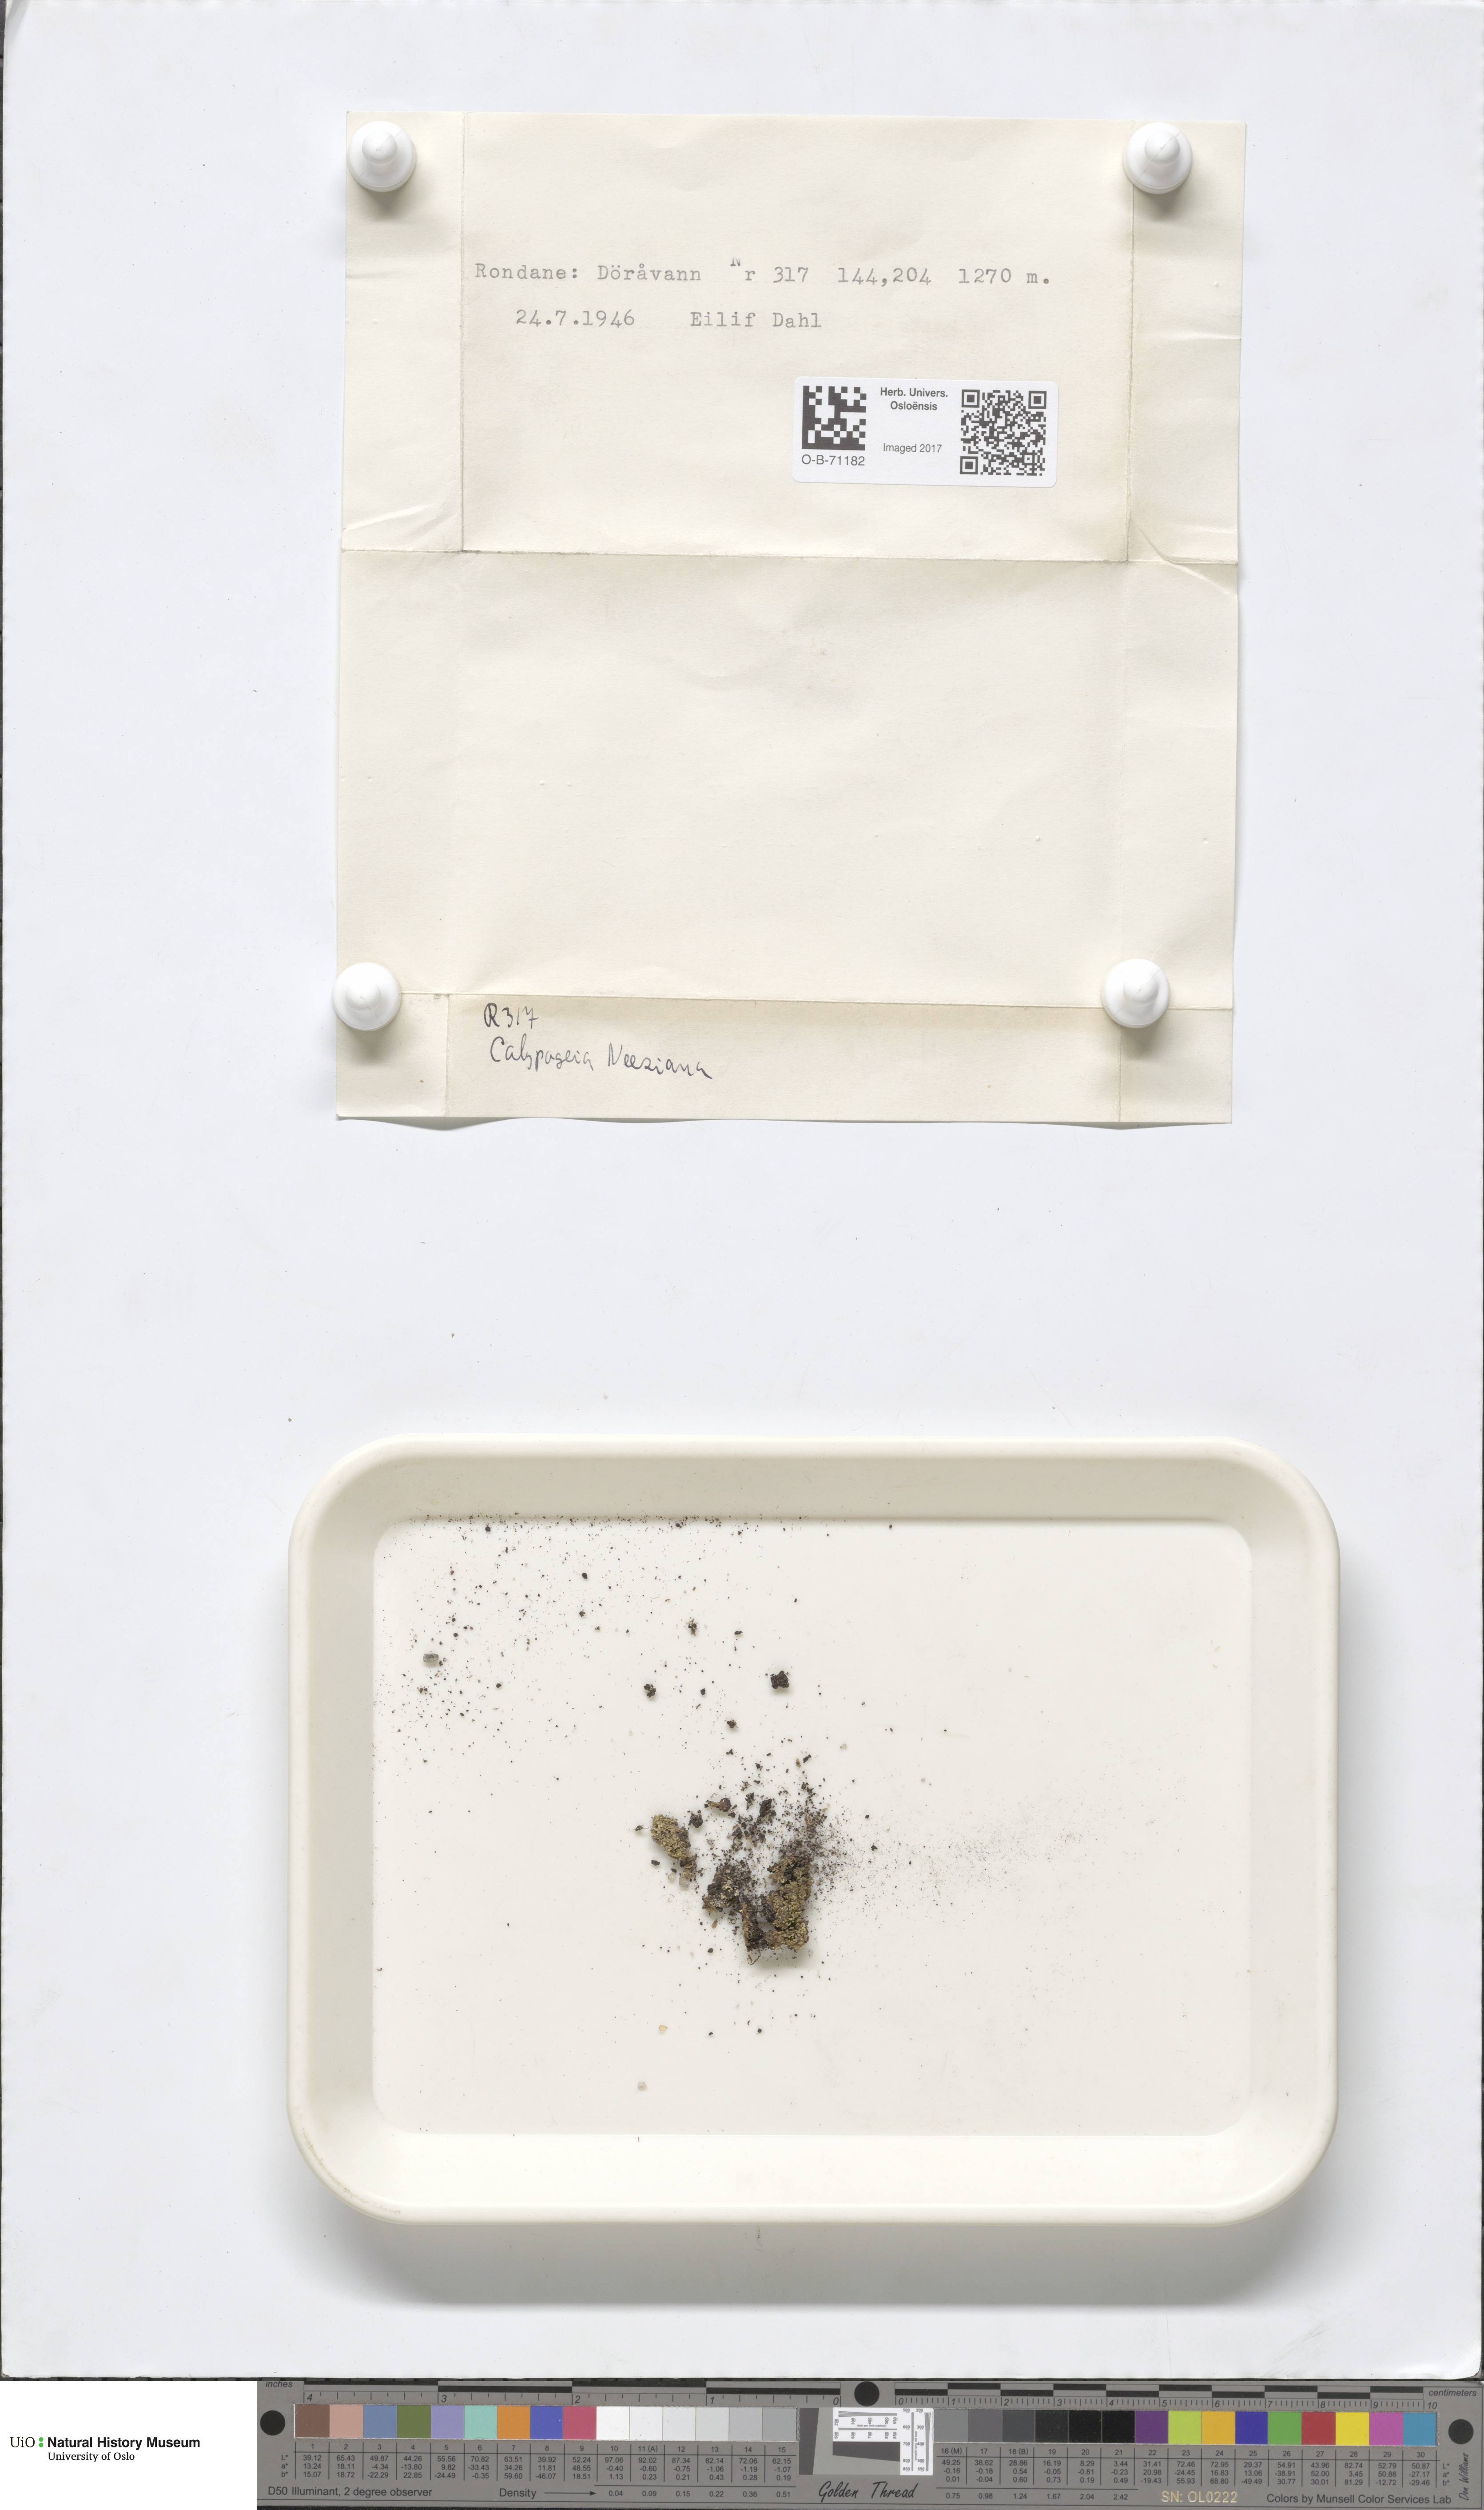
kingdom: Plantae
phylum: Marchantiophyta
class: Jungermanniopsida
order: Jungermanniales
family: Calypogeiaceae
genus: Calypogeia
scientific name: Calypogeia neesiana
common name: Nees  pouchwort
